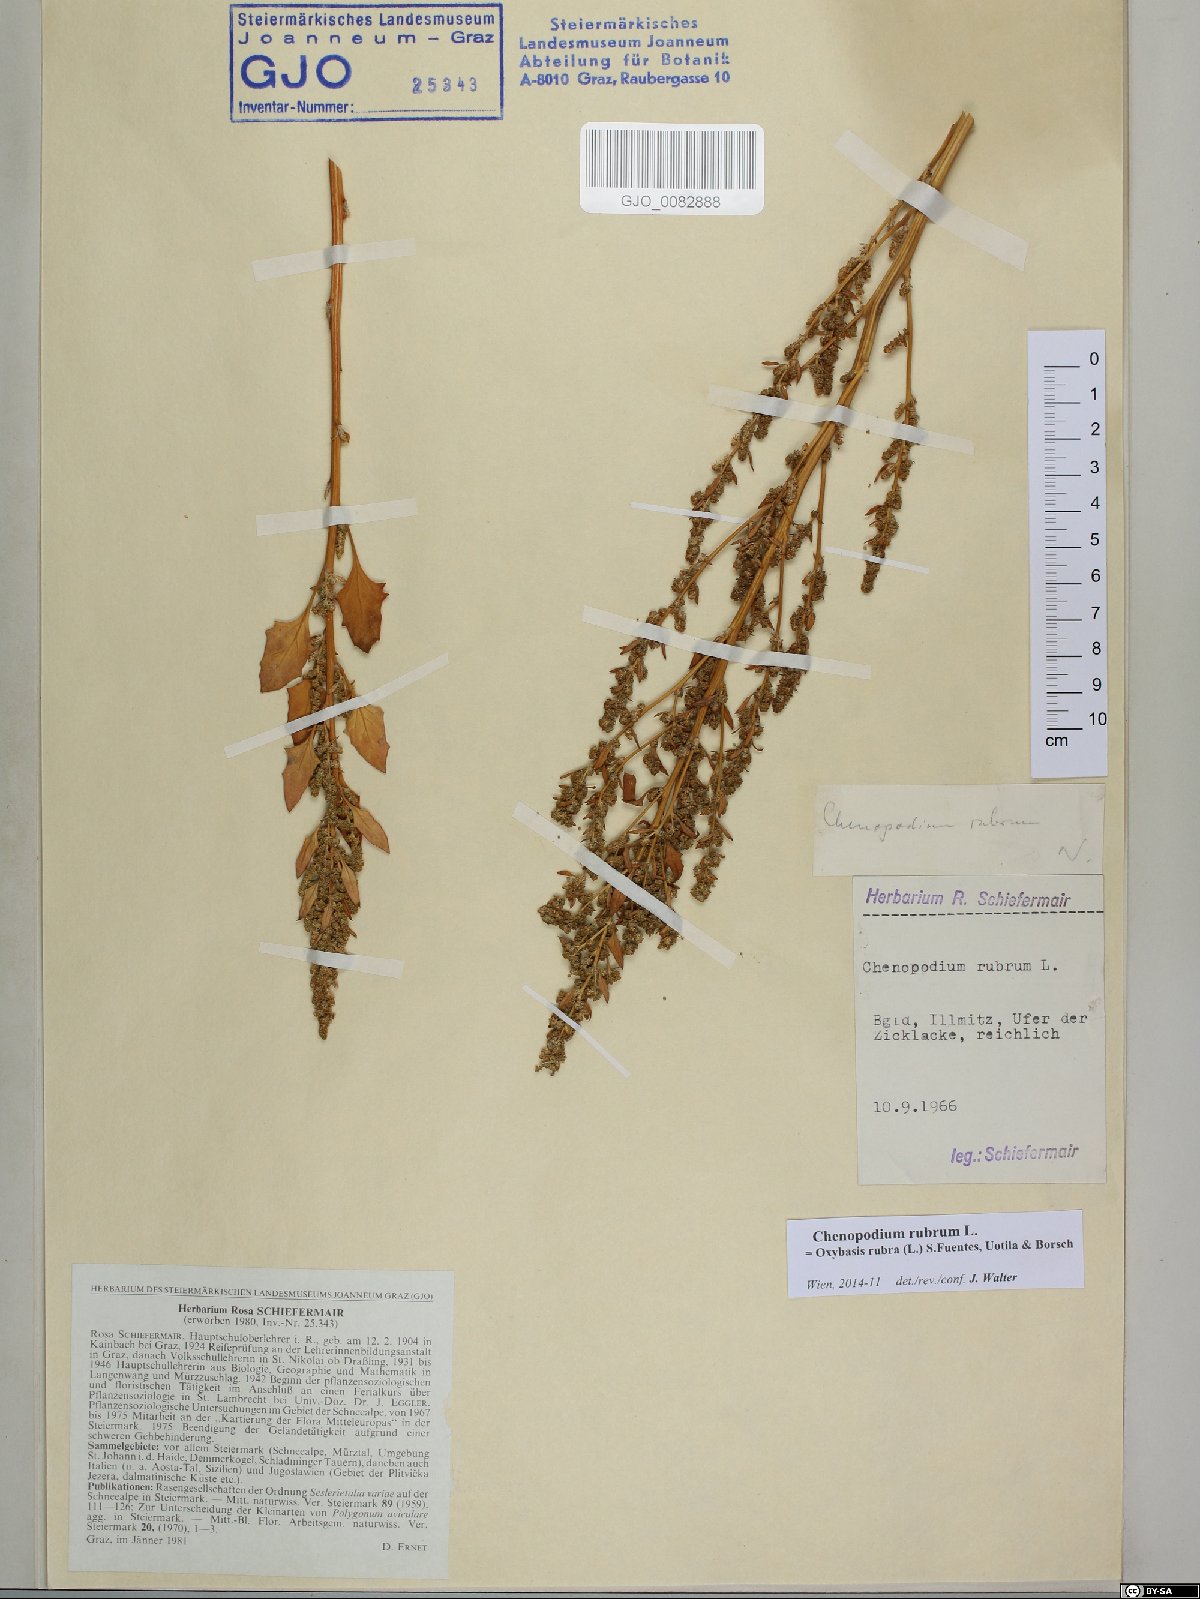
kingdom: Plantae
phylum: Tracheophyta
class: Magnoliopsida
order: Caryophyllales
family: Amaranthaceae
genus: Oxybasis
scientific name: Oxybasis rubra
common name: Red goosefoot
